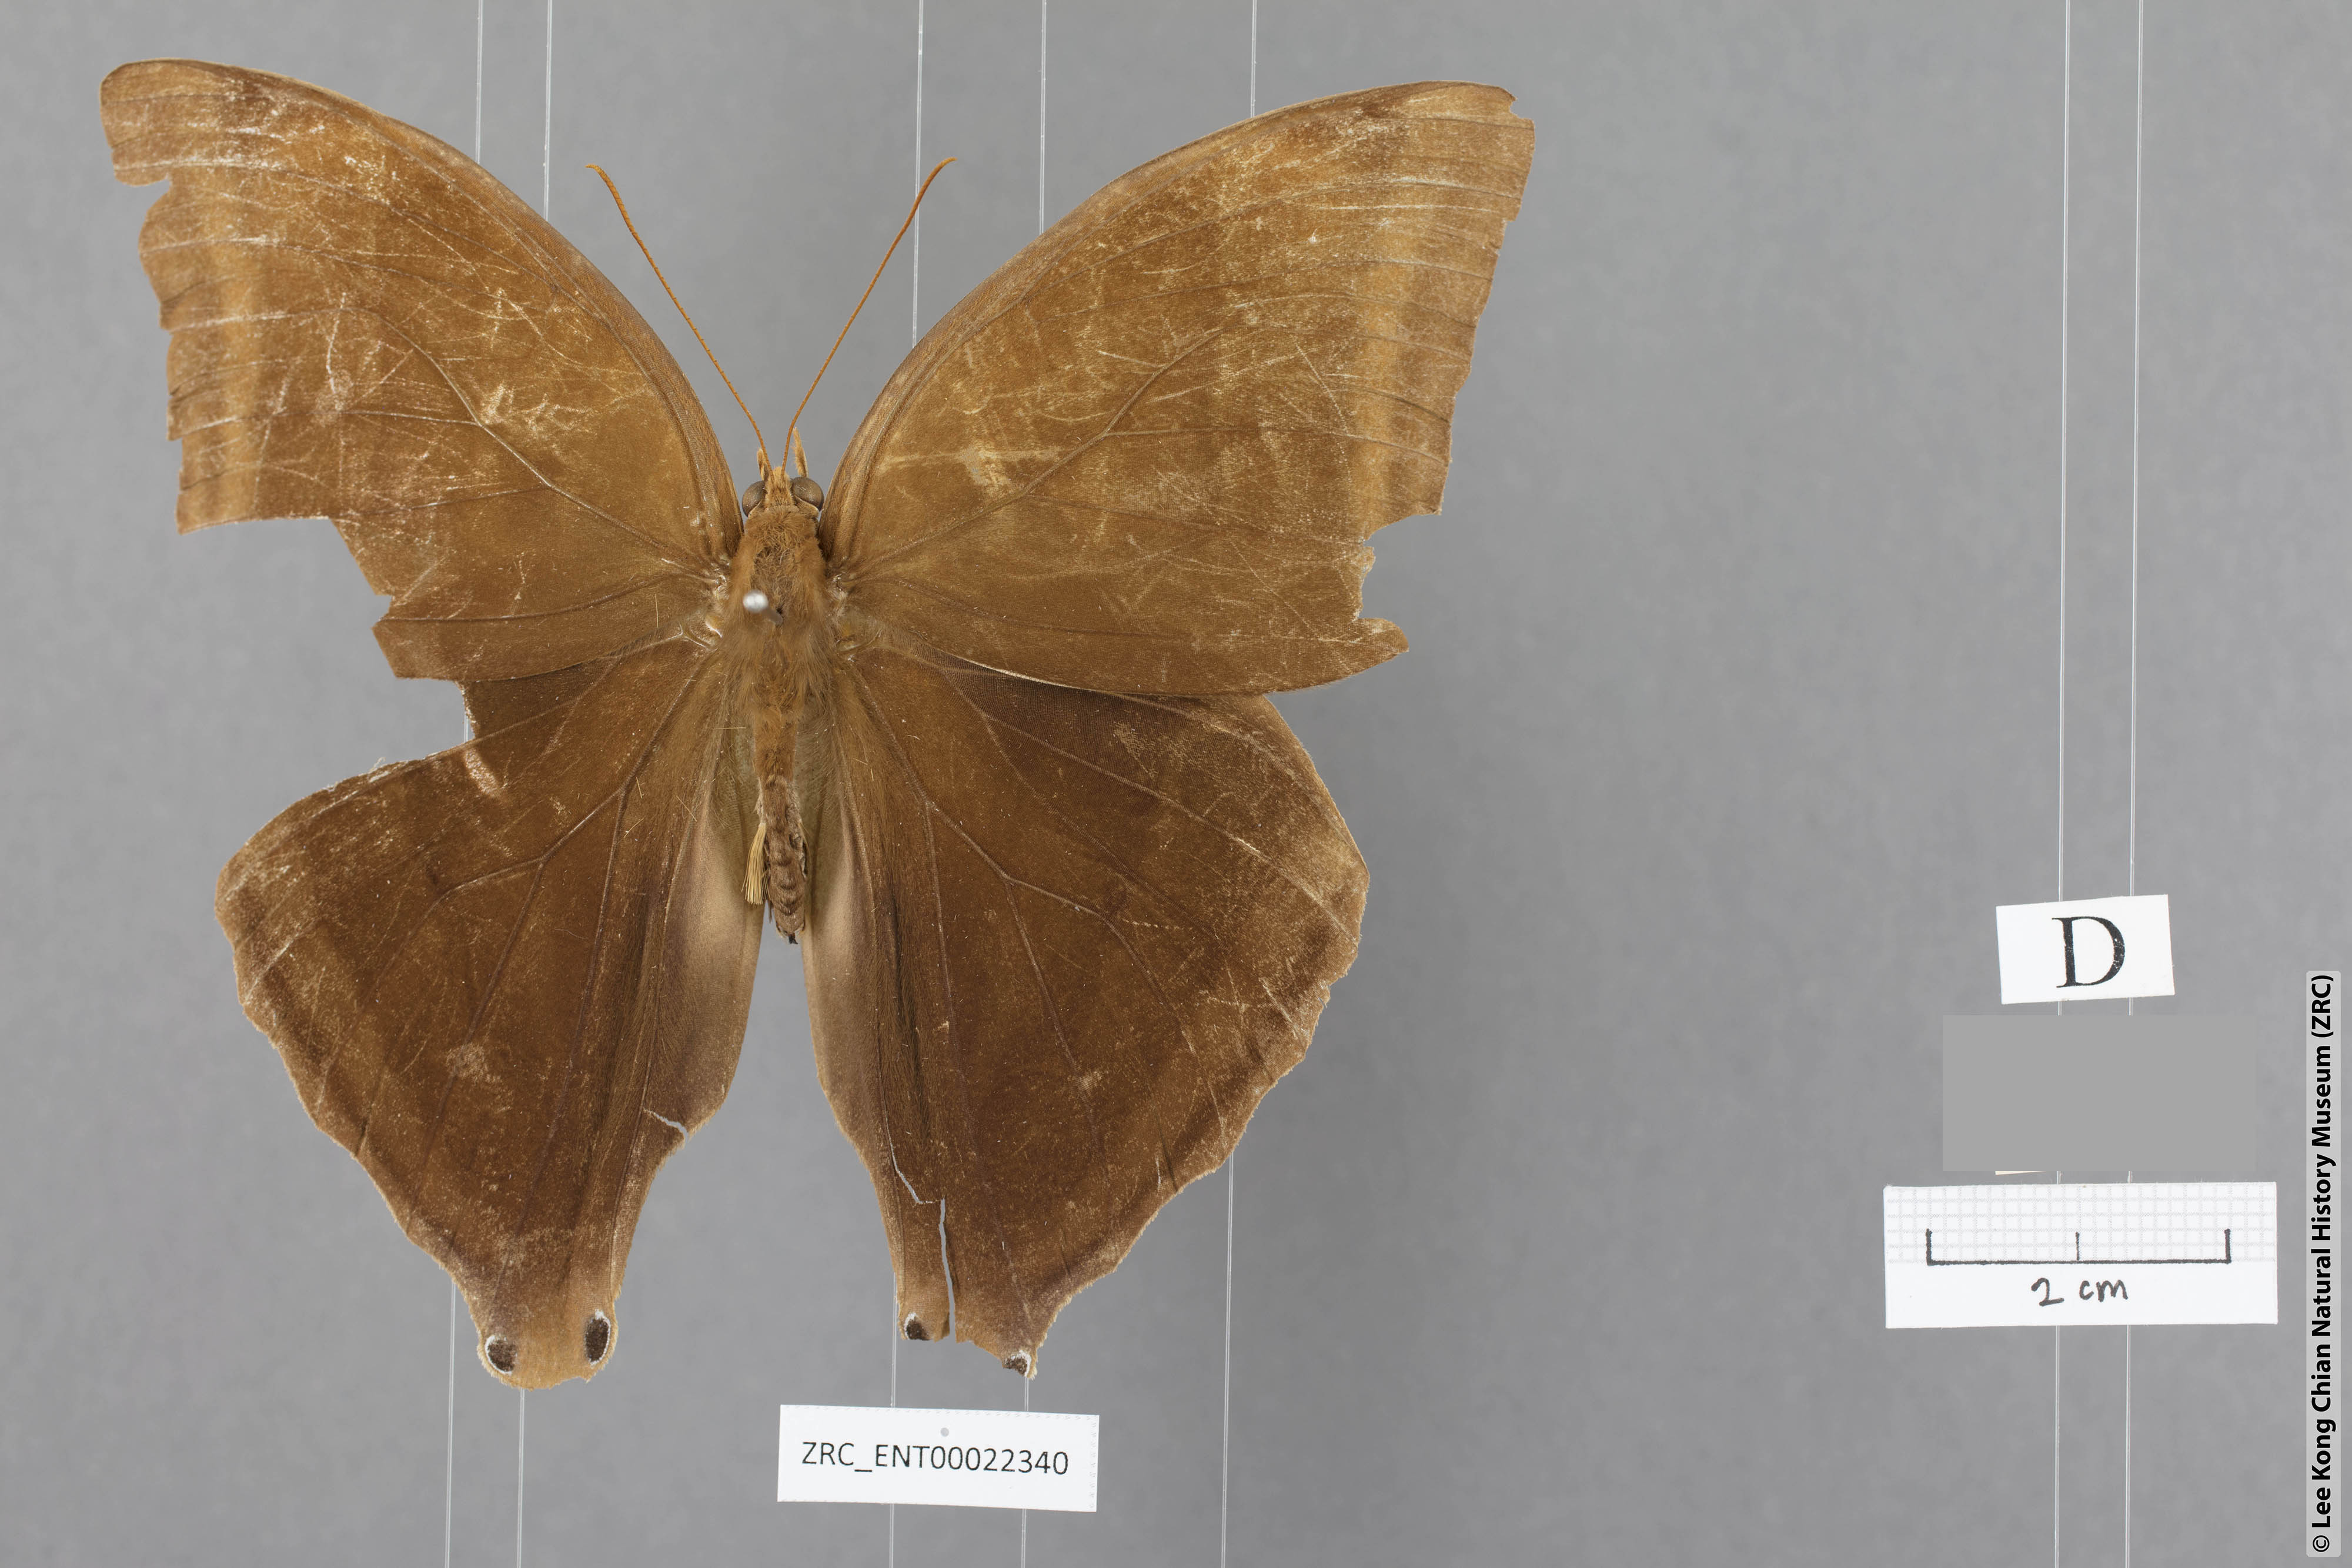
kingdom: Animalia
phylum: Arthropoda
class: Insecta
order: Lepidoptera
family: Nymphalidae
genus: Amathusia
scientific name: Amathusia perakana
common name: Perak palm king
